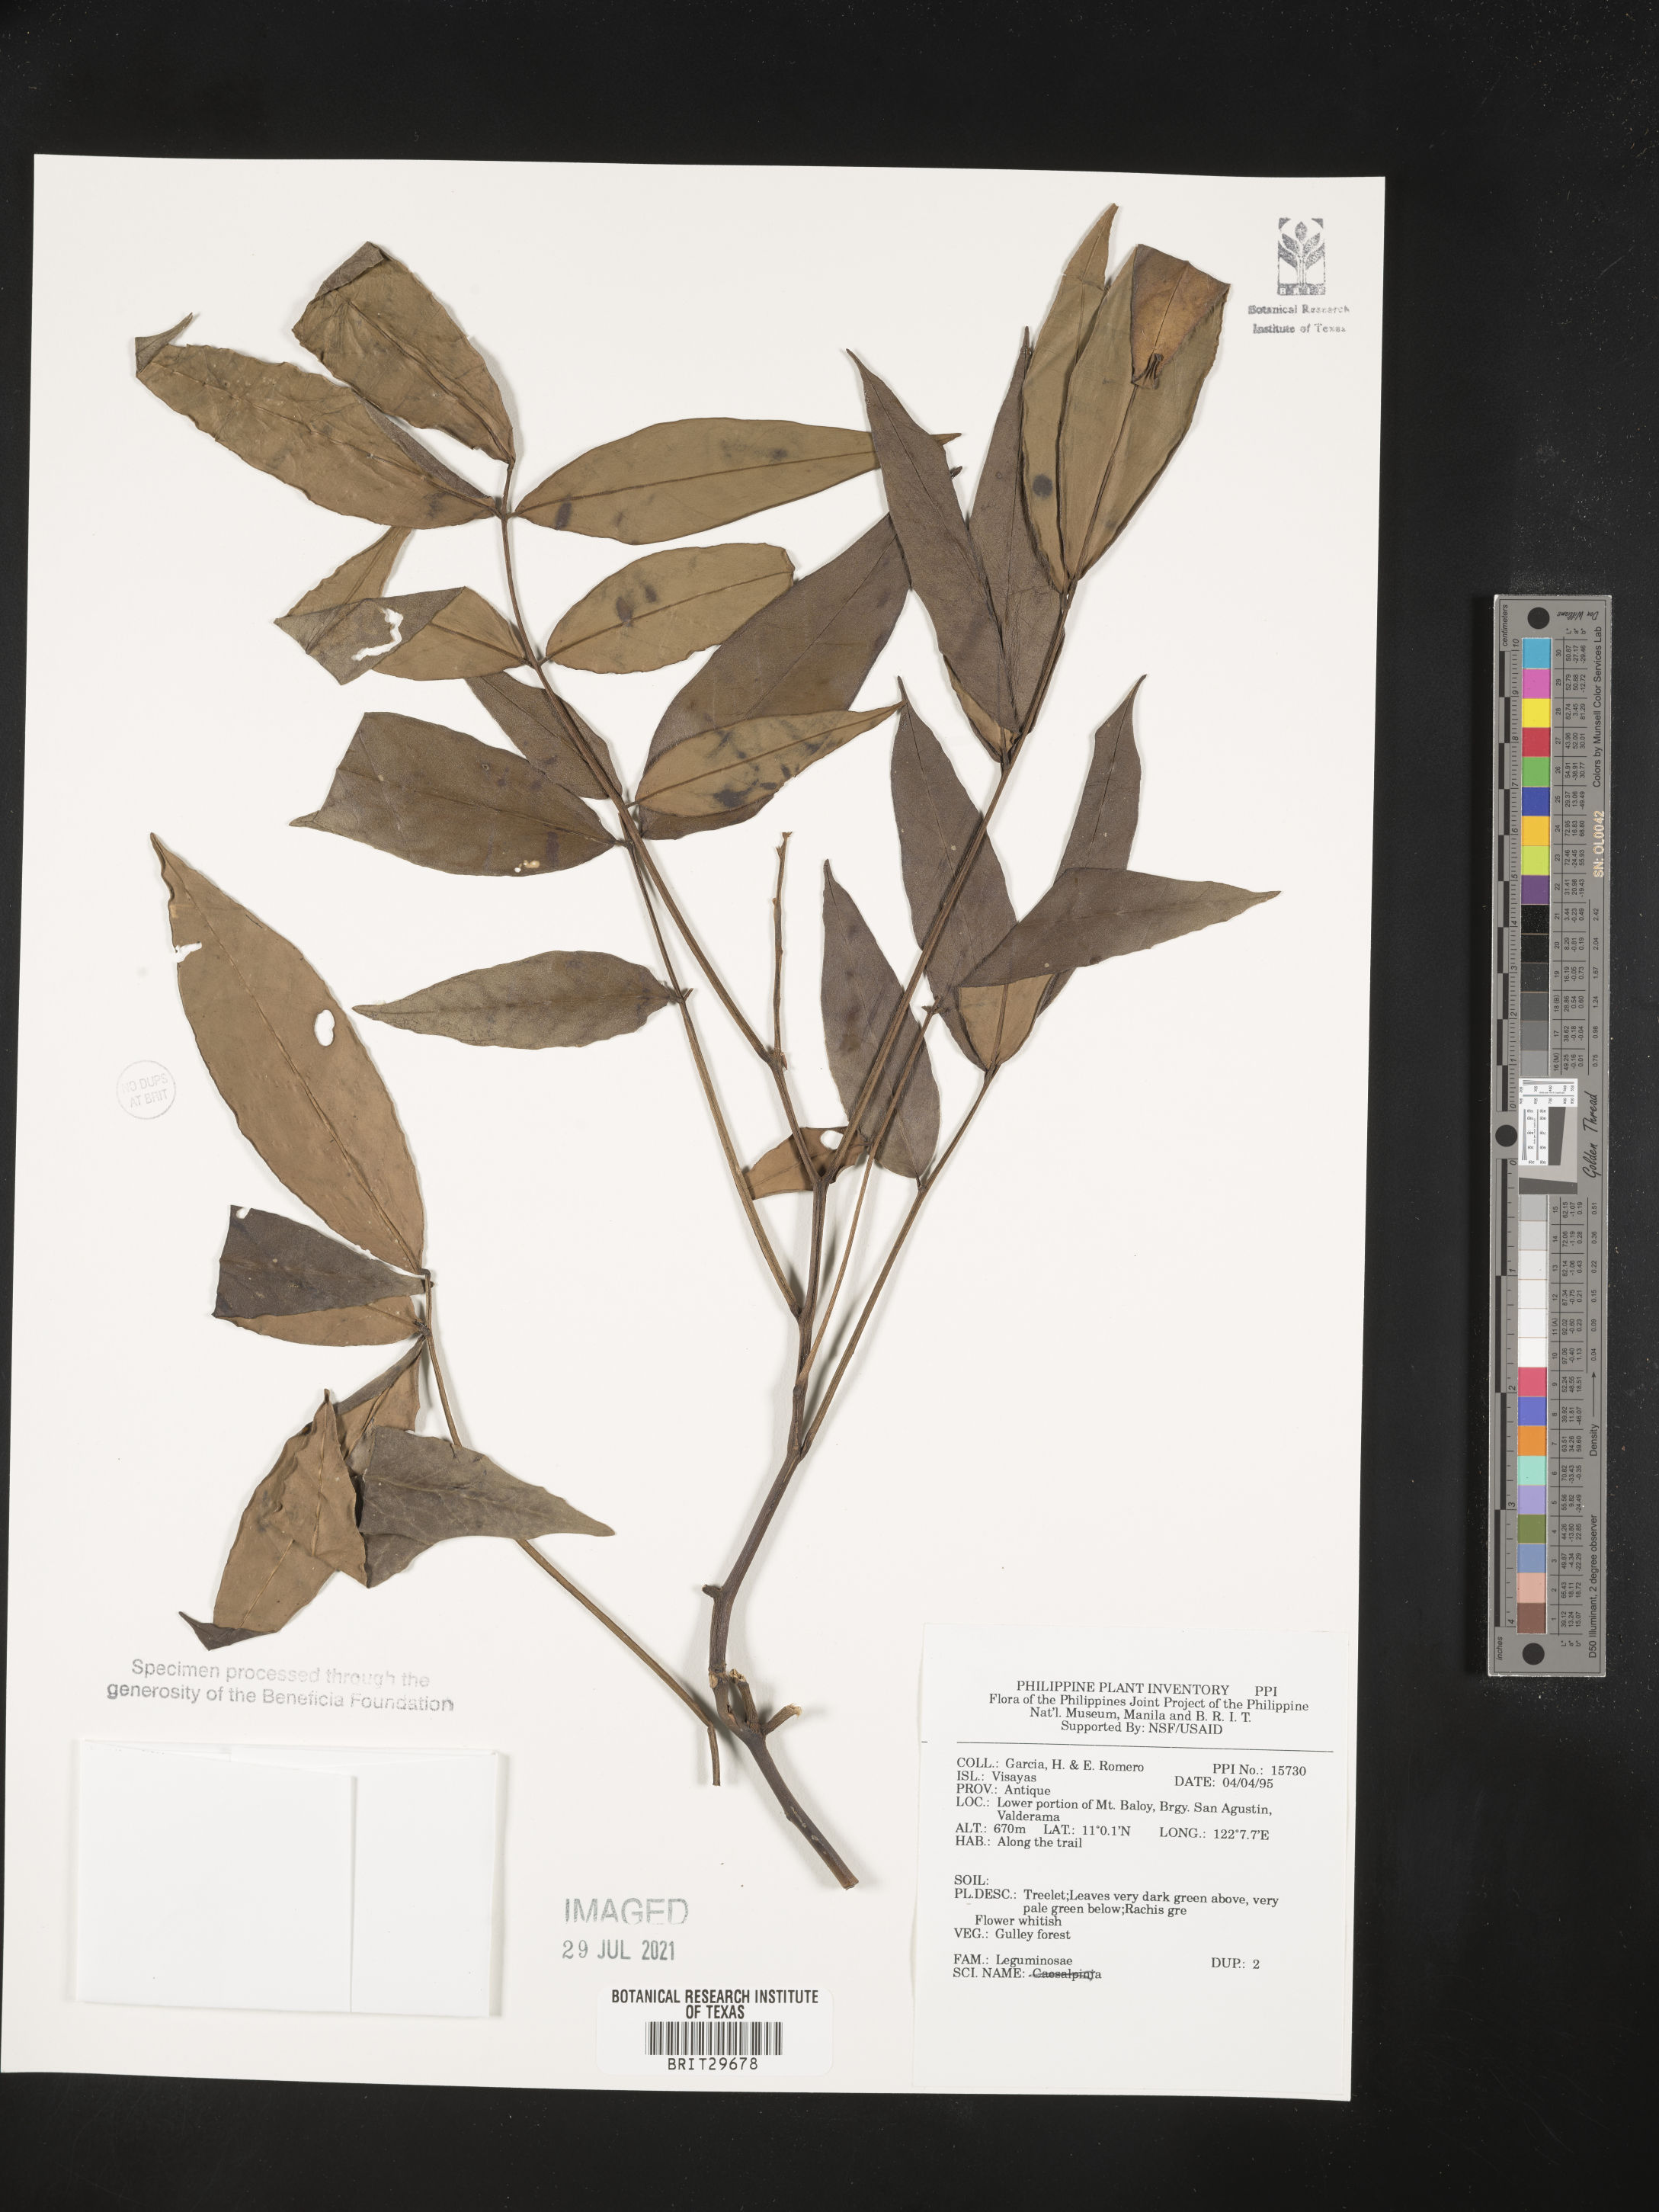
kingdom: Plantae
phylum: Tracheophyta
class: Magnoliopsida
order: Fabales
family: Fabaceae
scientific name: Fabaceae
